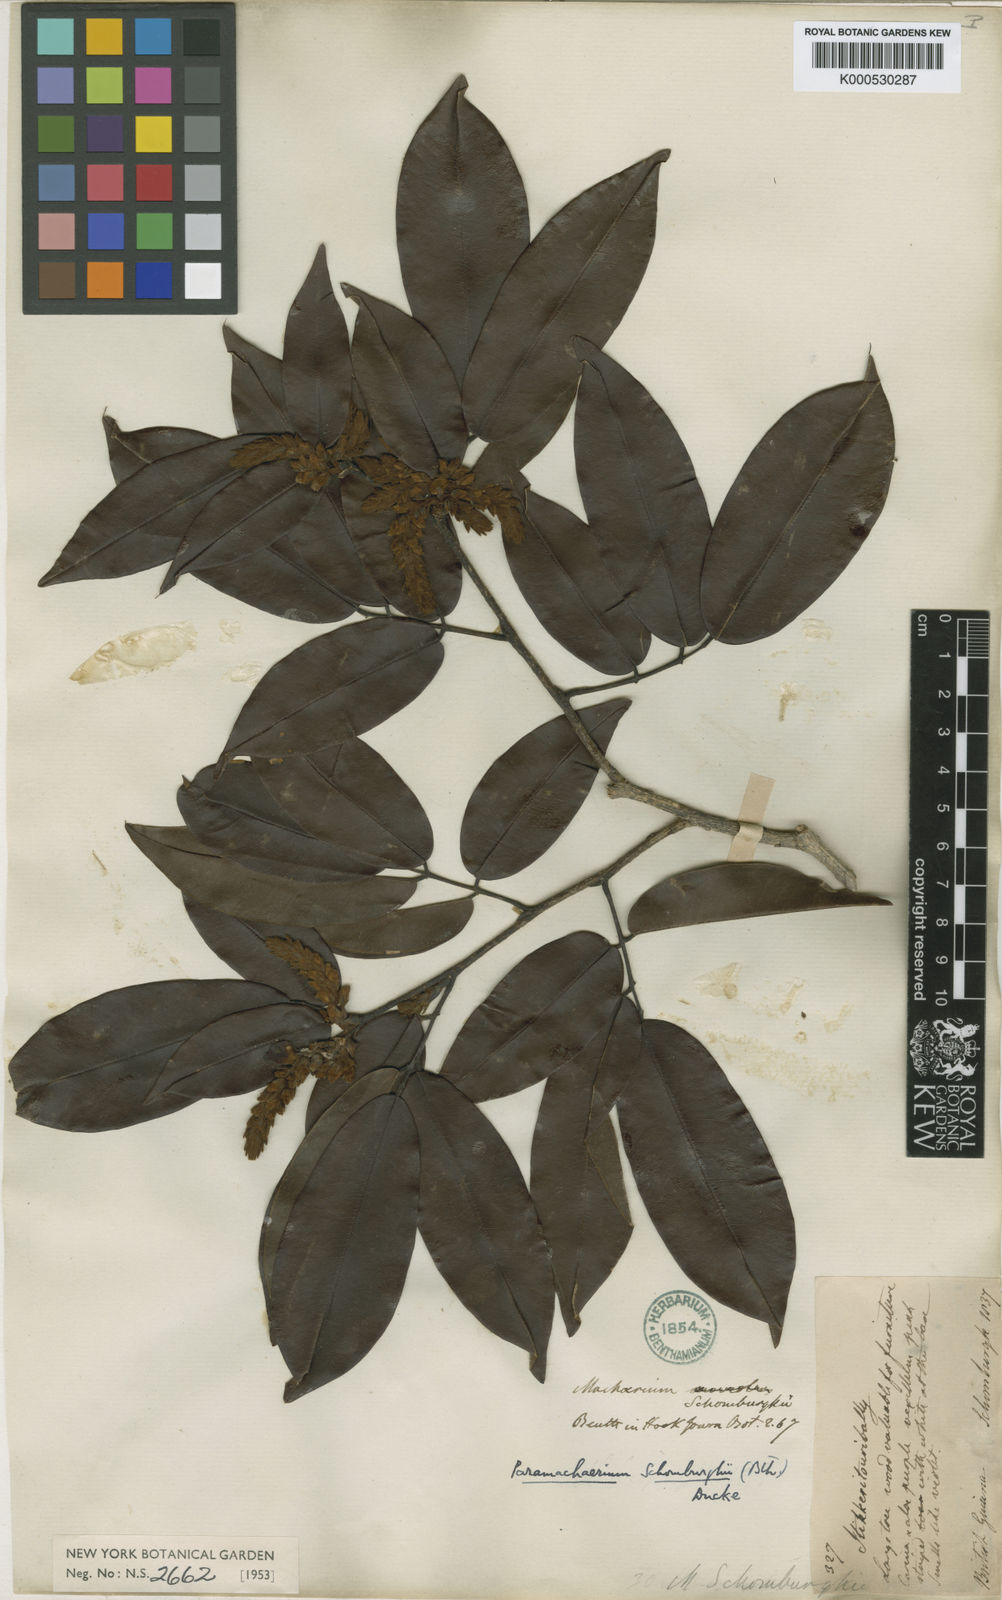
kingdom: Plantae
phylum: Tracheophyta
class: Magnoliopsida
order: Fabales
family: Fabaceae
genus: Paramachaerium
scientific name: Paramachaerium schomburgkii
